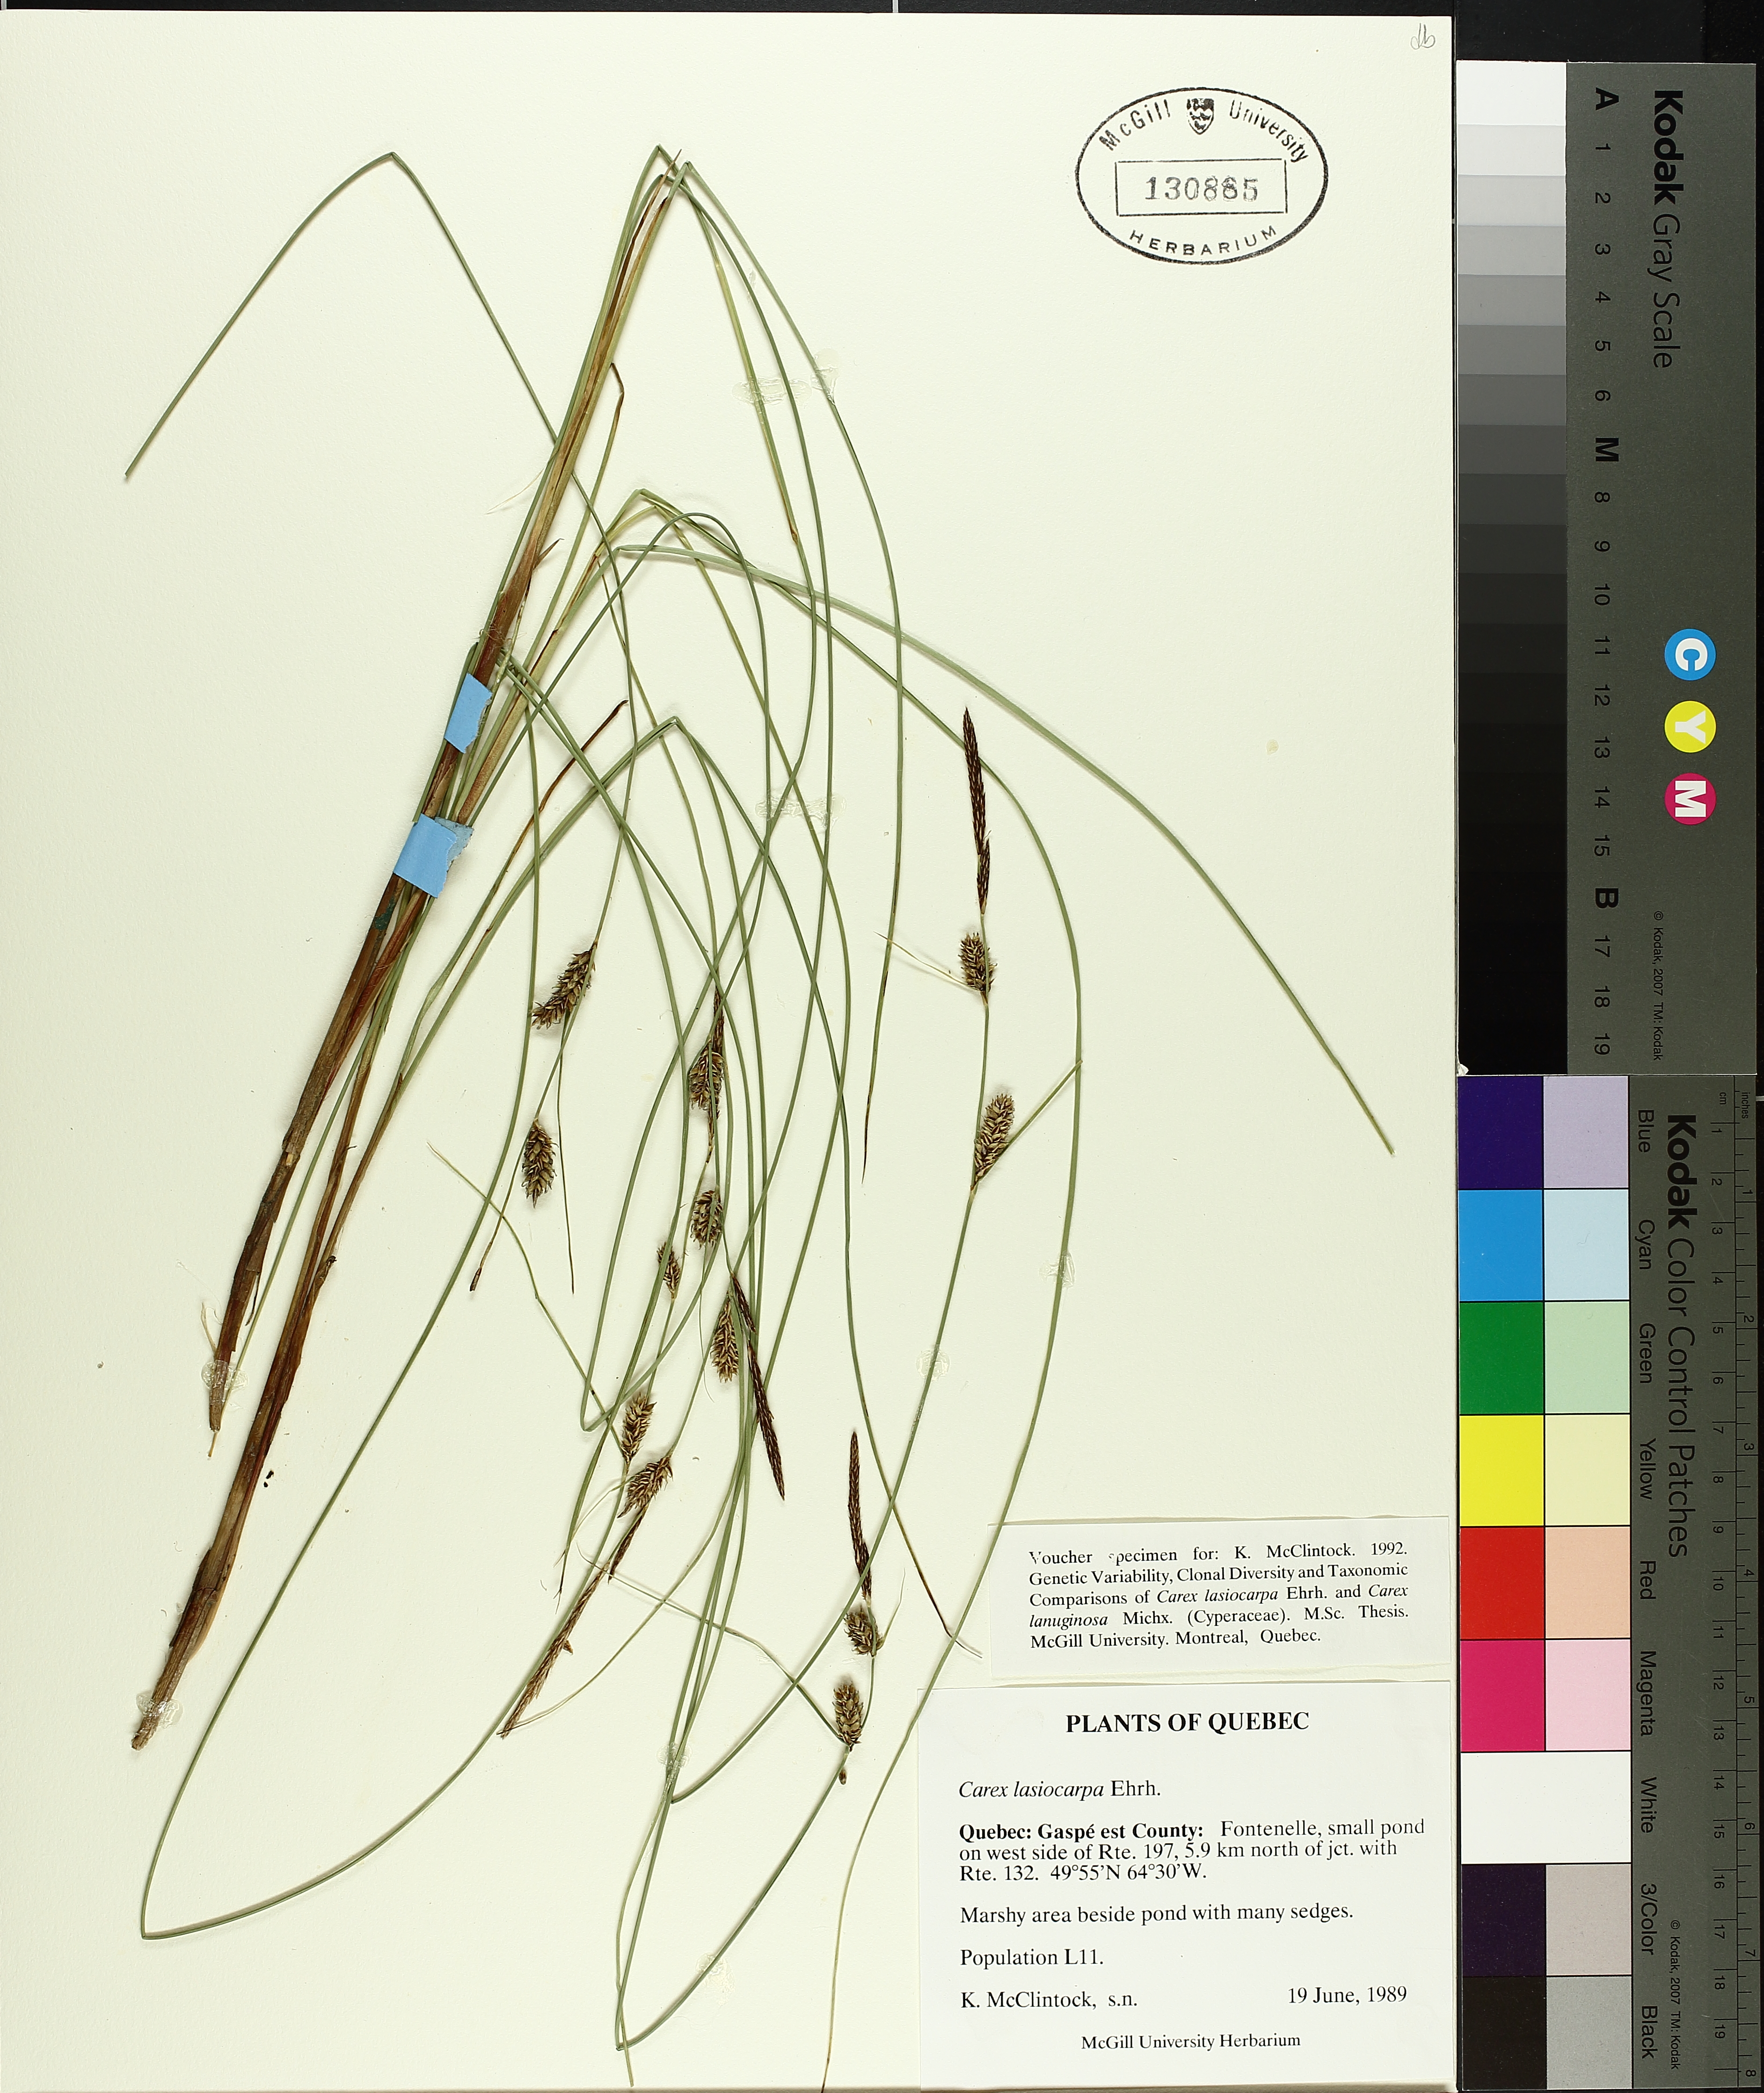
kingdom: Plantae
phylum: Tracheophyta
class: Liliopsida
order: Poales
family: Cyperaceae
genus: Carex
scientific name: Carex flava
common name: Large yellow-sedge
